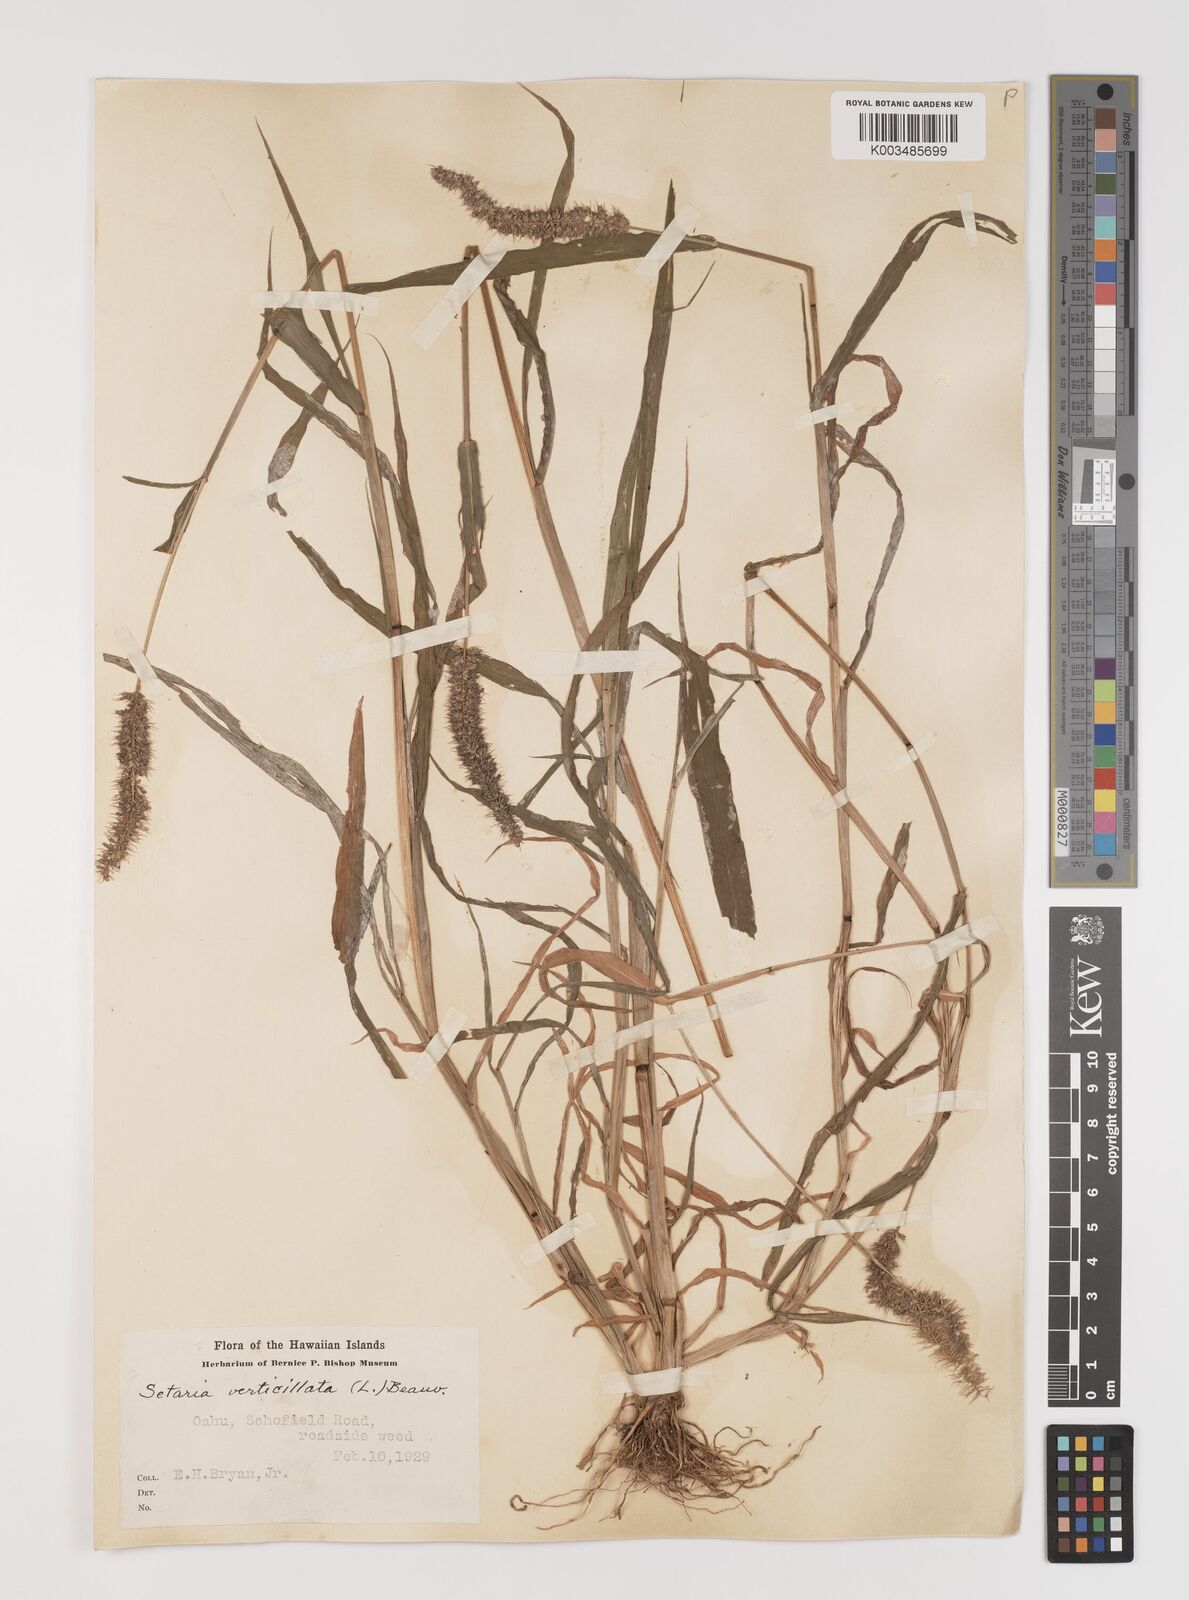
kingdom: Plantae
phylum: Tracheophyta
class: Liliopsida
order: Poales
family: Poaceae
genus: Setaria
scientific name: Setaria verticillata
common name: Hooked bristlegrass
